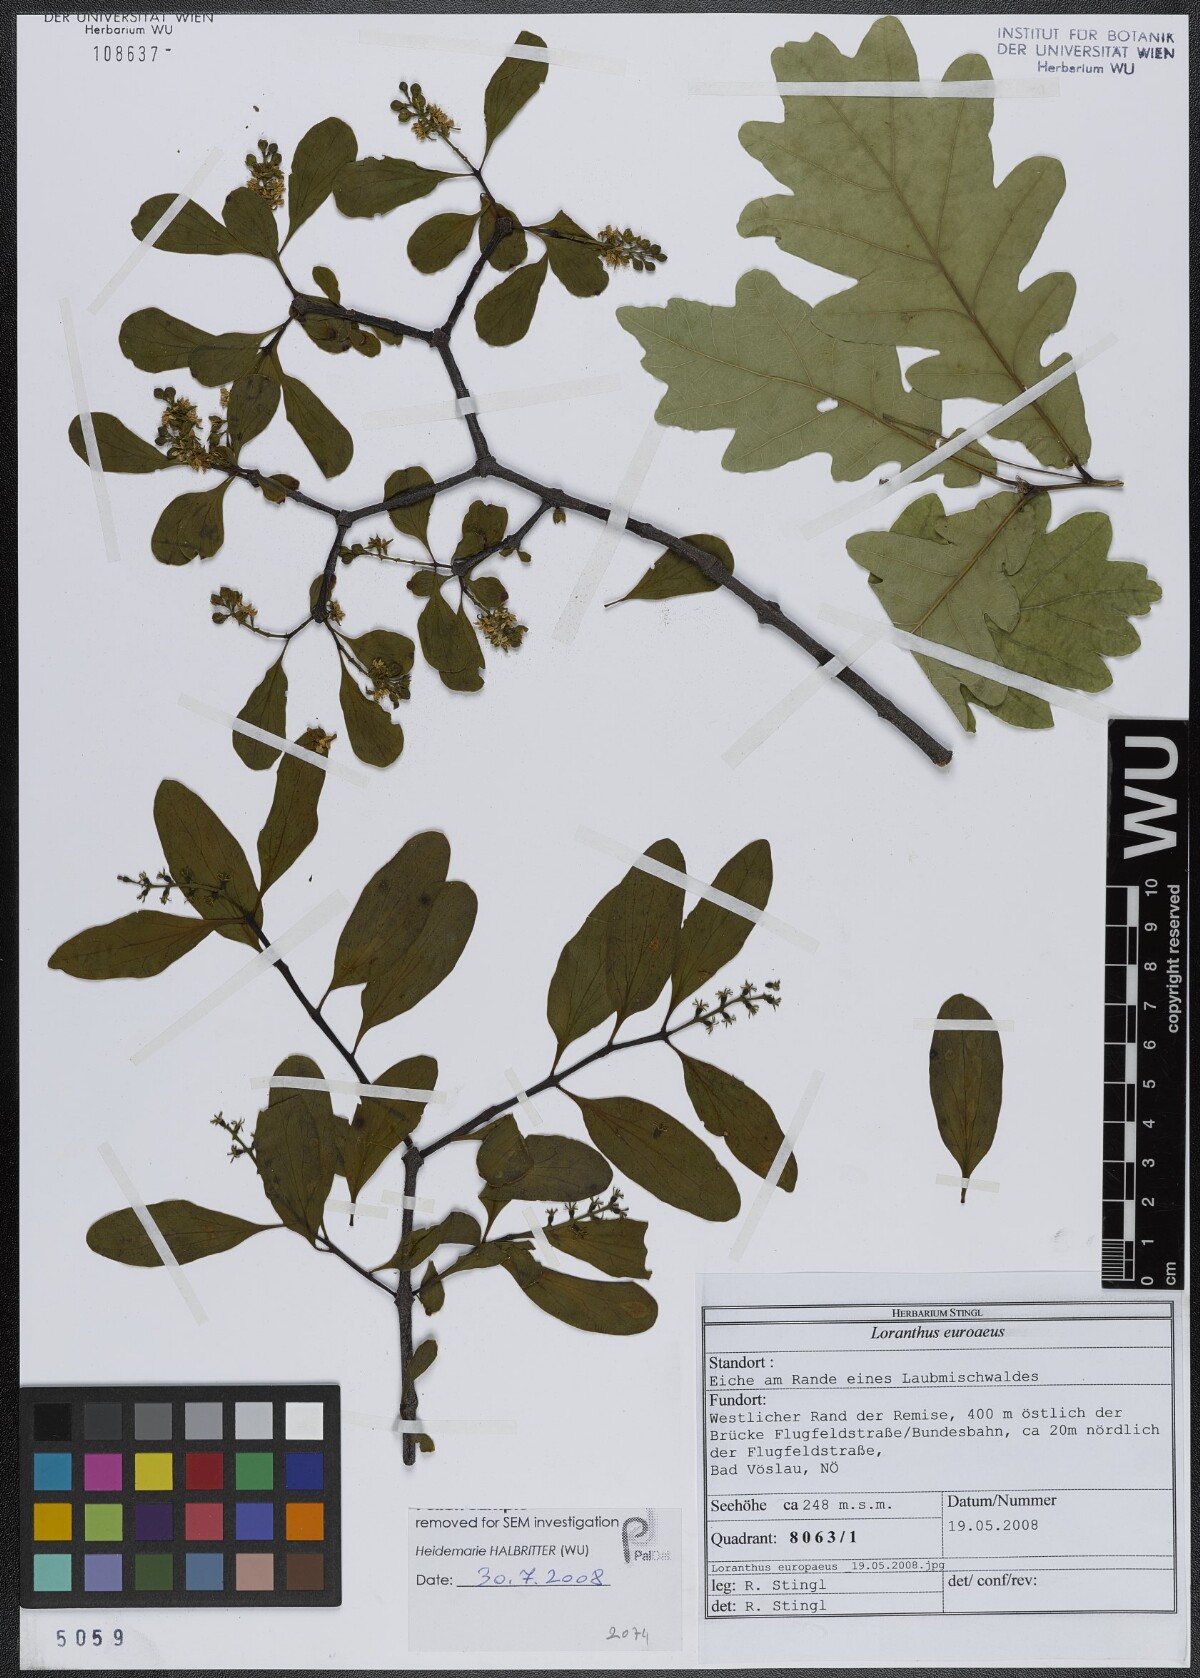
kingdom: Plantae
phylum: Tracheophyta
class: Magnoliopsida
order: Santalales
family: Loranthaceae
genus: Loranthus
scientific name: Loranthus europaeus
